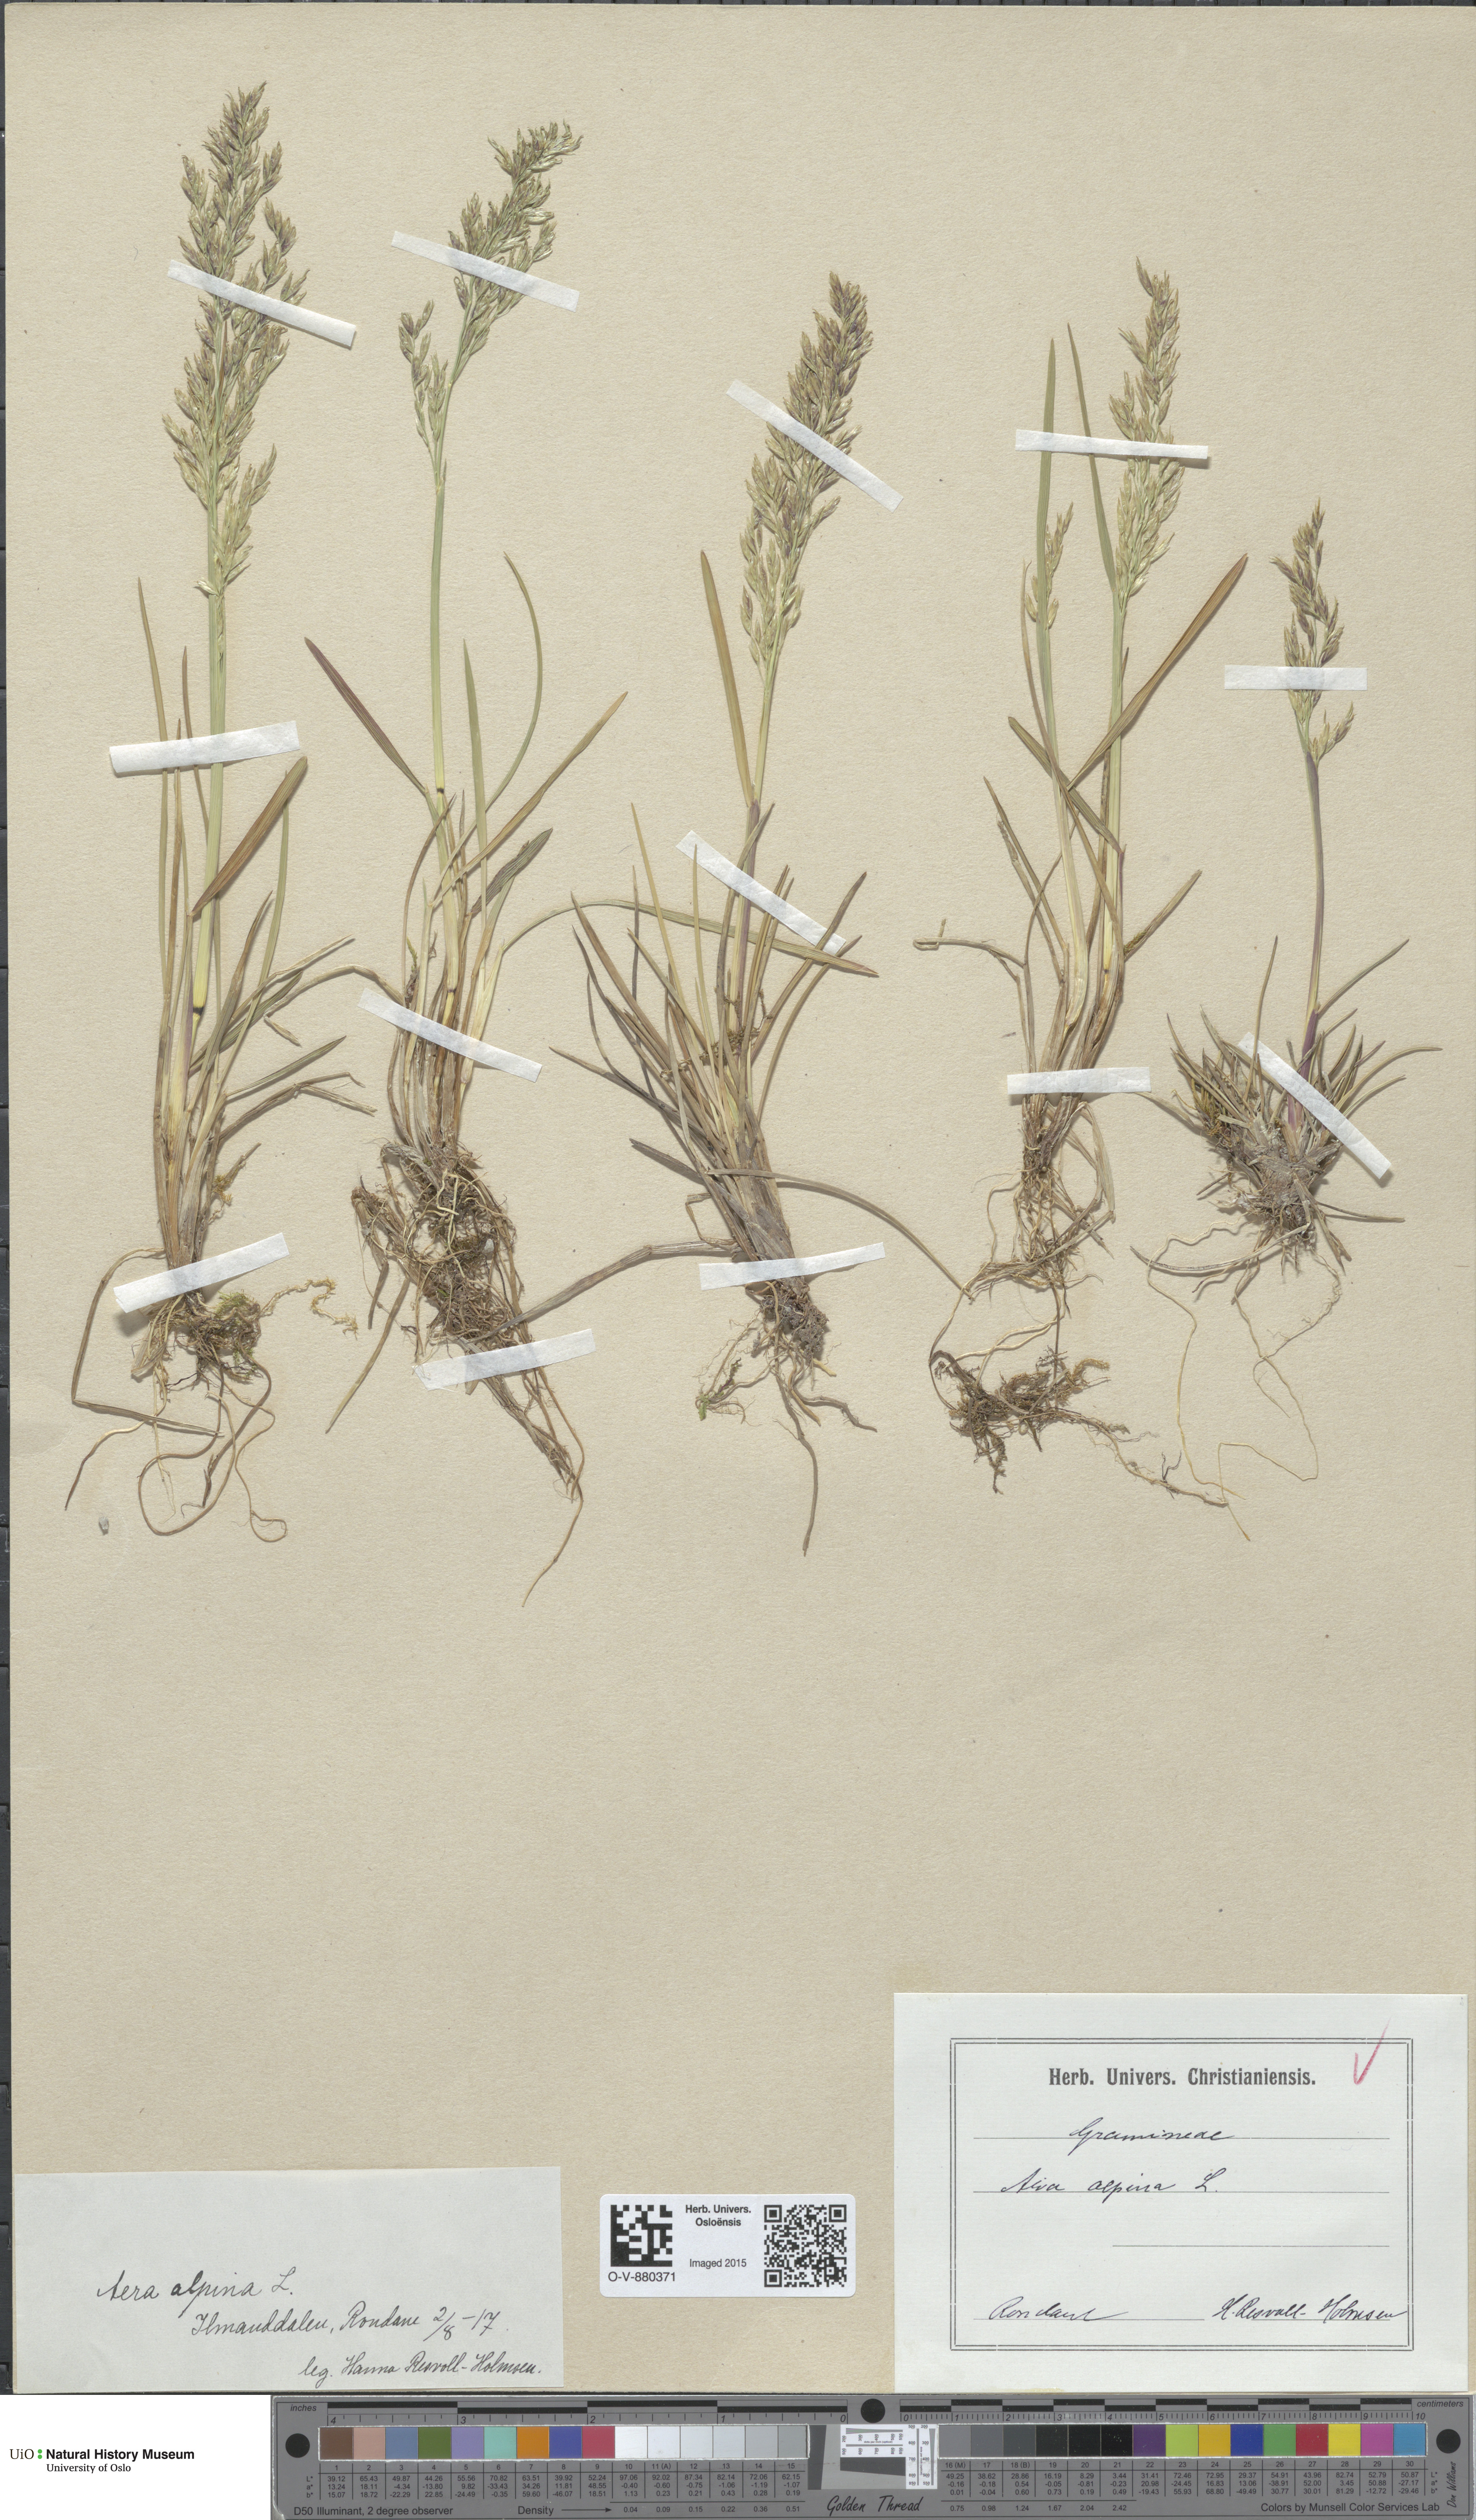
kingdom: Plantae
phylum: Tracheophyta
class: Liliopsida
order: Poales
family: Poaceae
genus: Deschampsia
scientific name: Deschampsia cespitosa
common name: Tufted hair-grass
